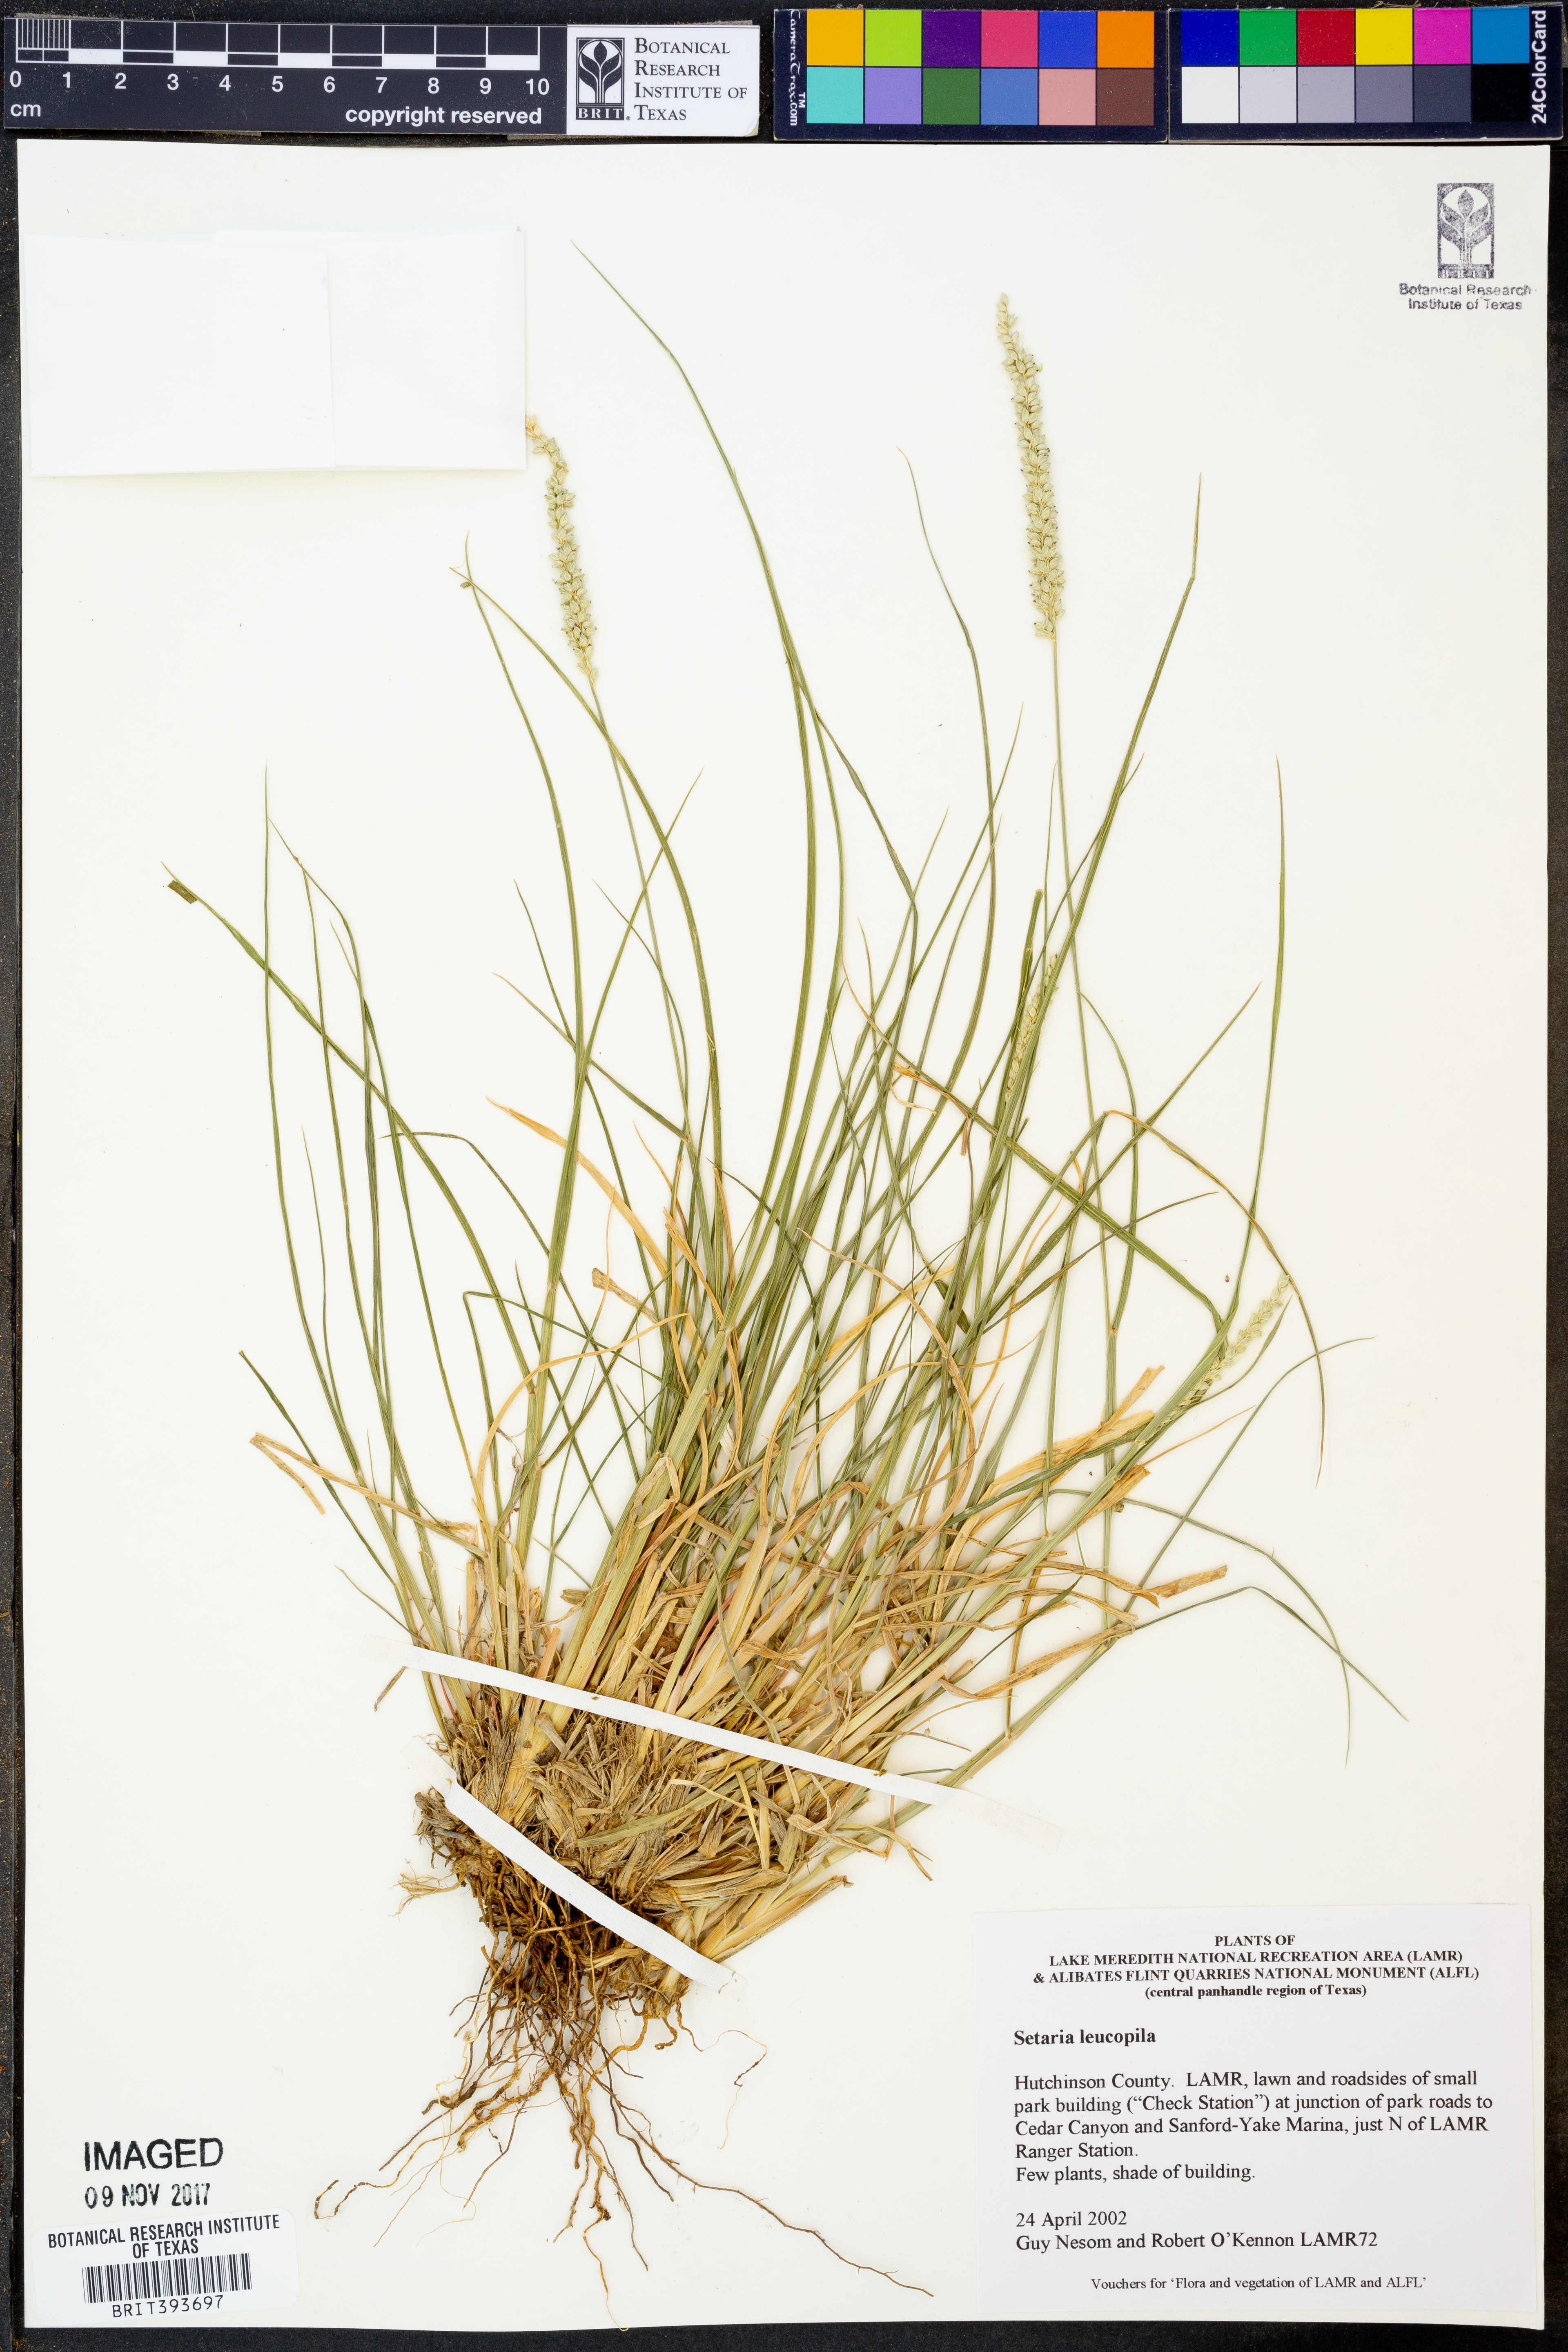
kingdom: Plantae
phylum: Tracheophyta
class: Liliopsida
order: Poales
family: Poaceae
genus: Setaria
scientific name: Setaria leucopila
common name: Plains bristle grass
